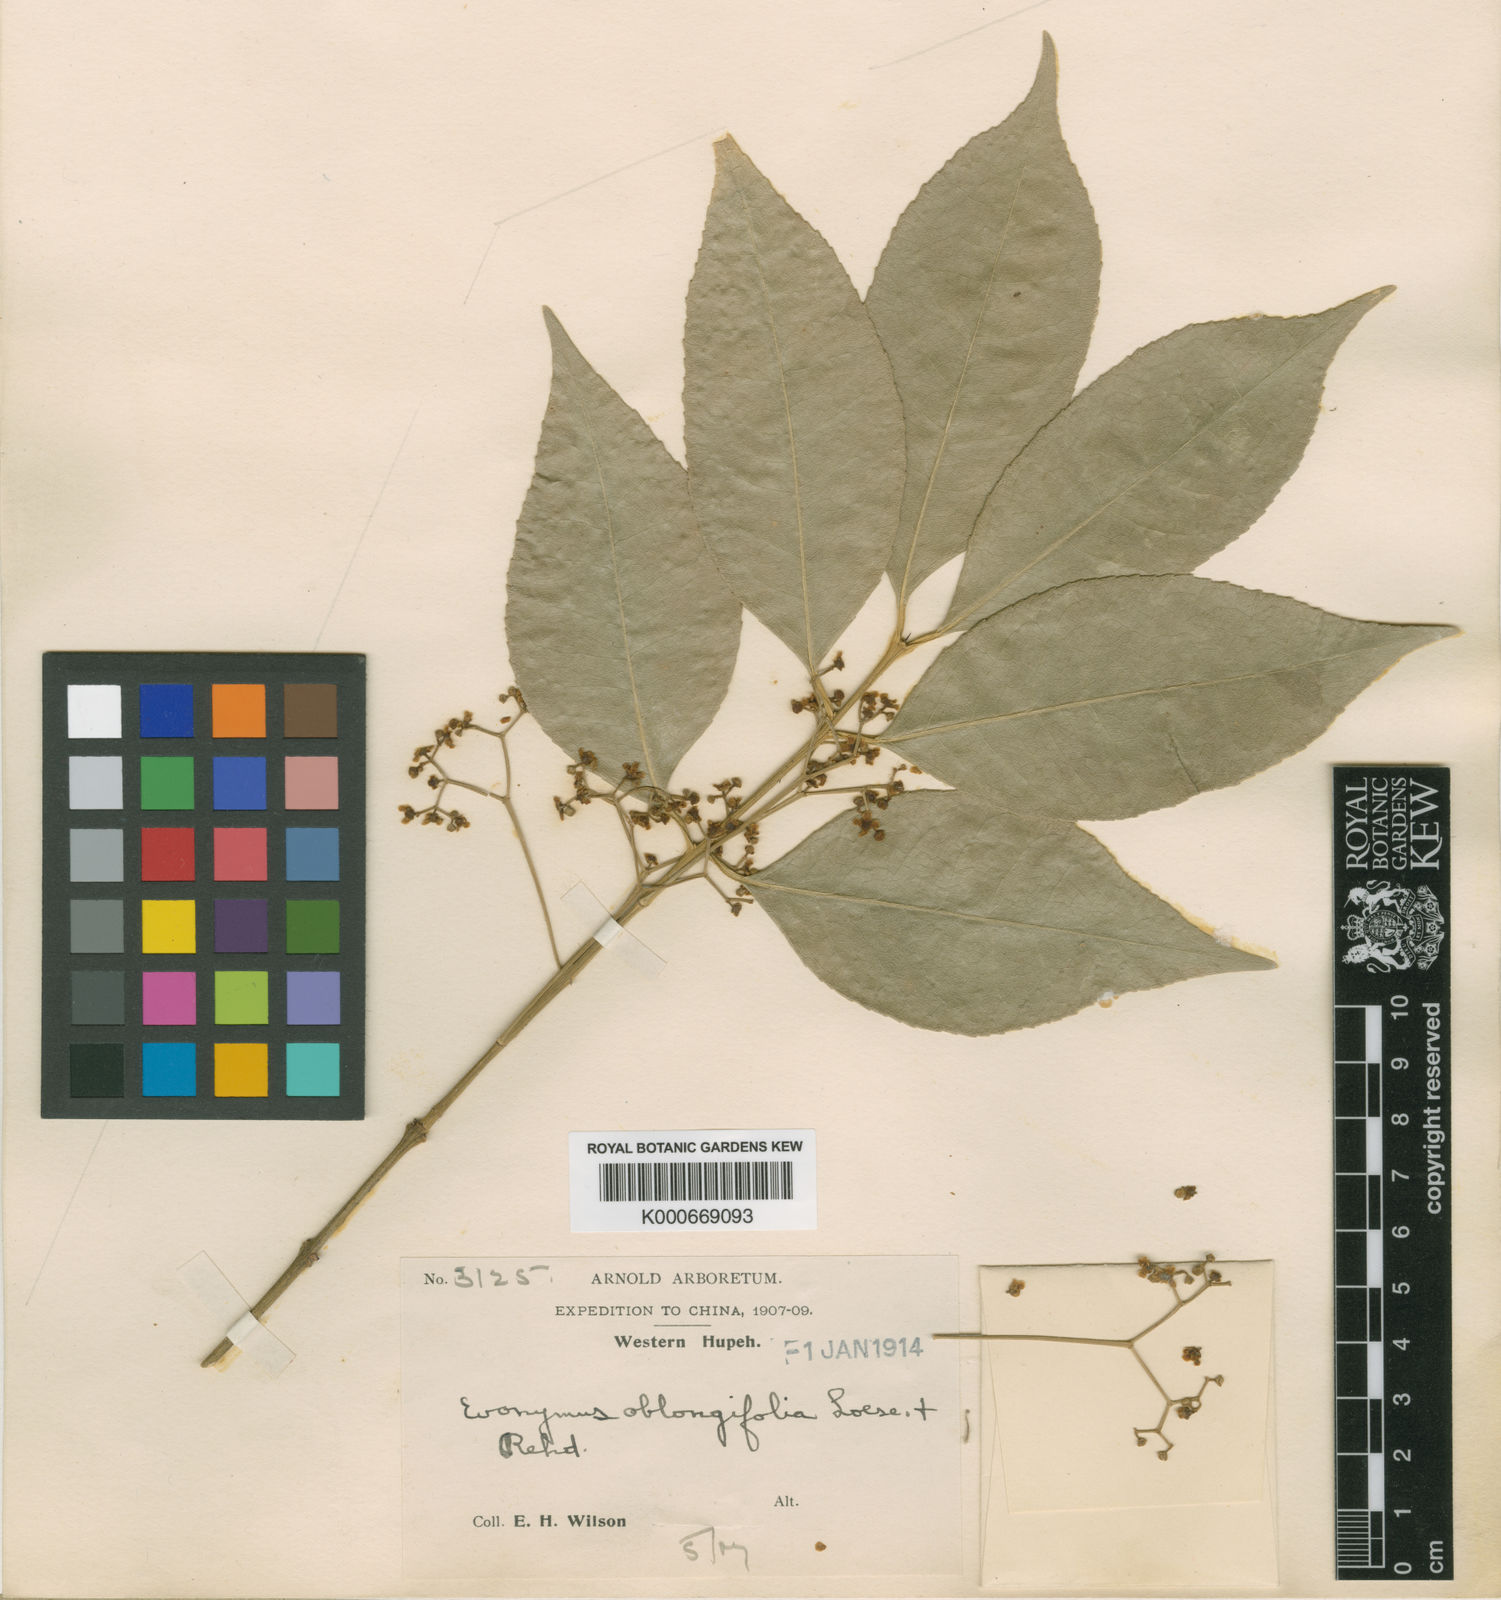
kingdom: Plantae
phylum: Tracheophyta
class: Magnoliopsida
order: Celastrales
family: Celastraceae
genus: Euonymus
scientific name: Euonymus nitidus
